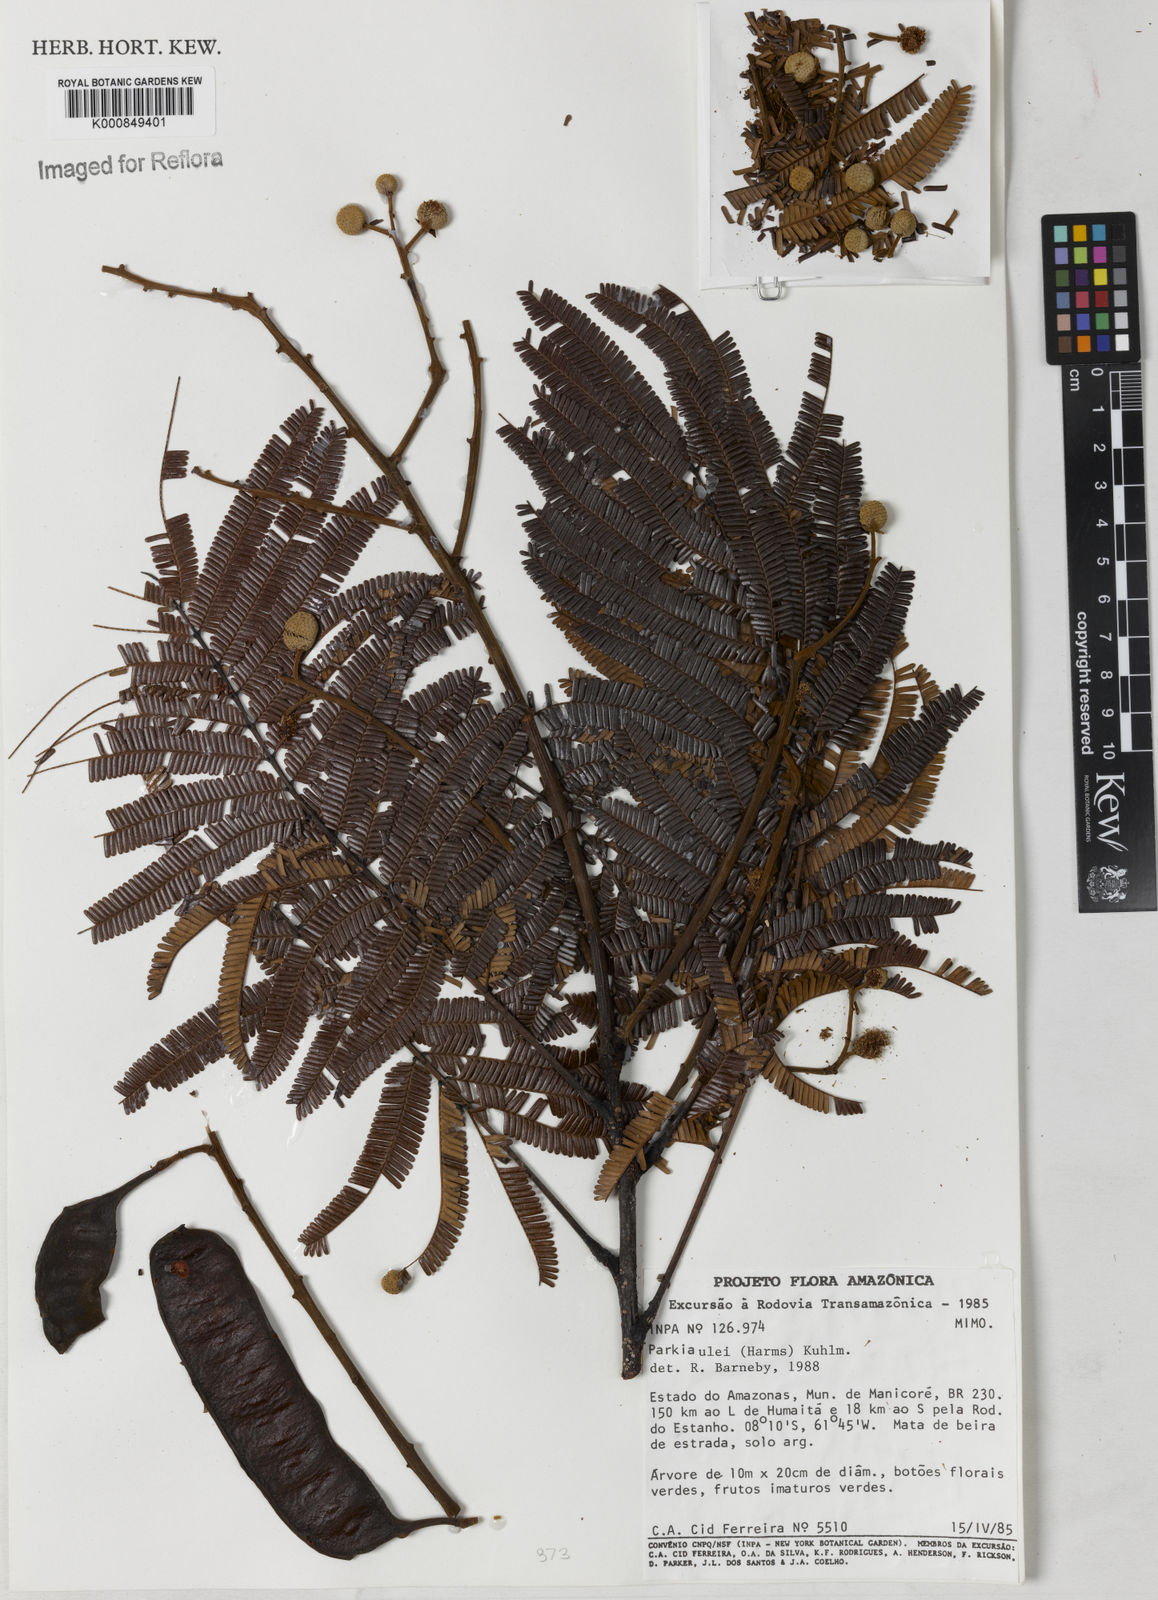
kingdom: Plantae
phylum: Tracheophyta
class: Magnoliopsida
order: Fabales
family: Fabaceae
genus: Parkia
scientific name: Parkia ulei
